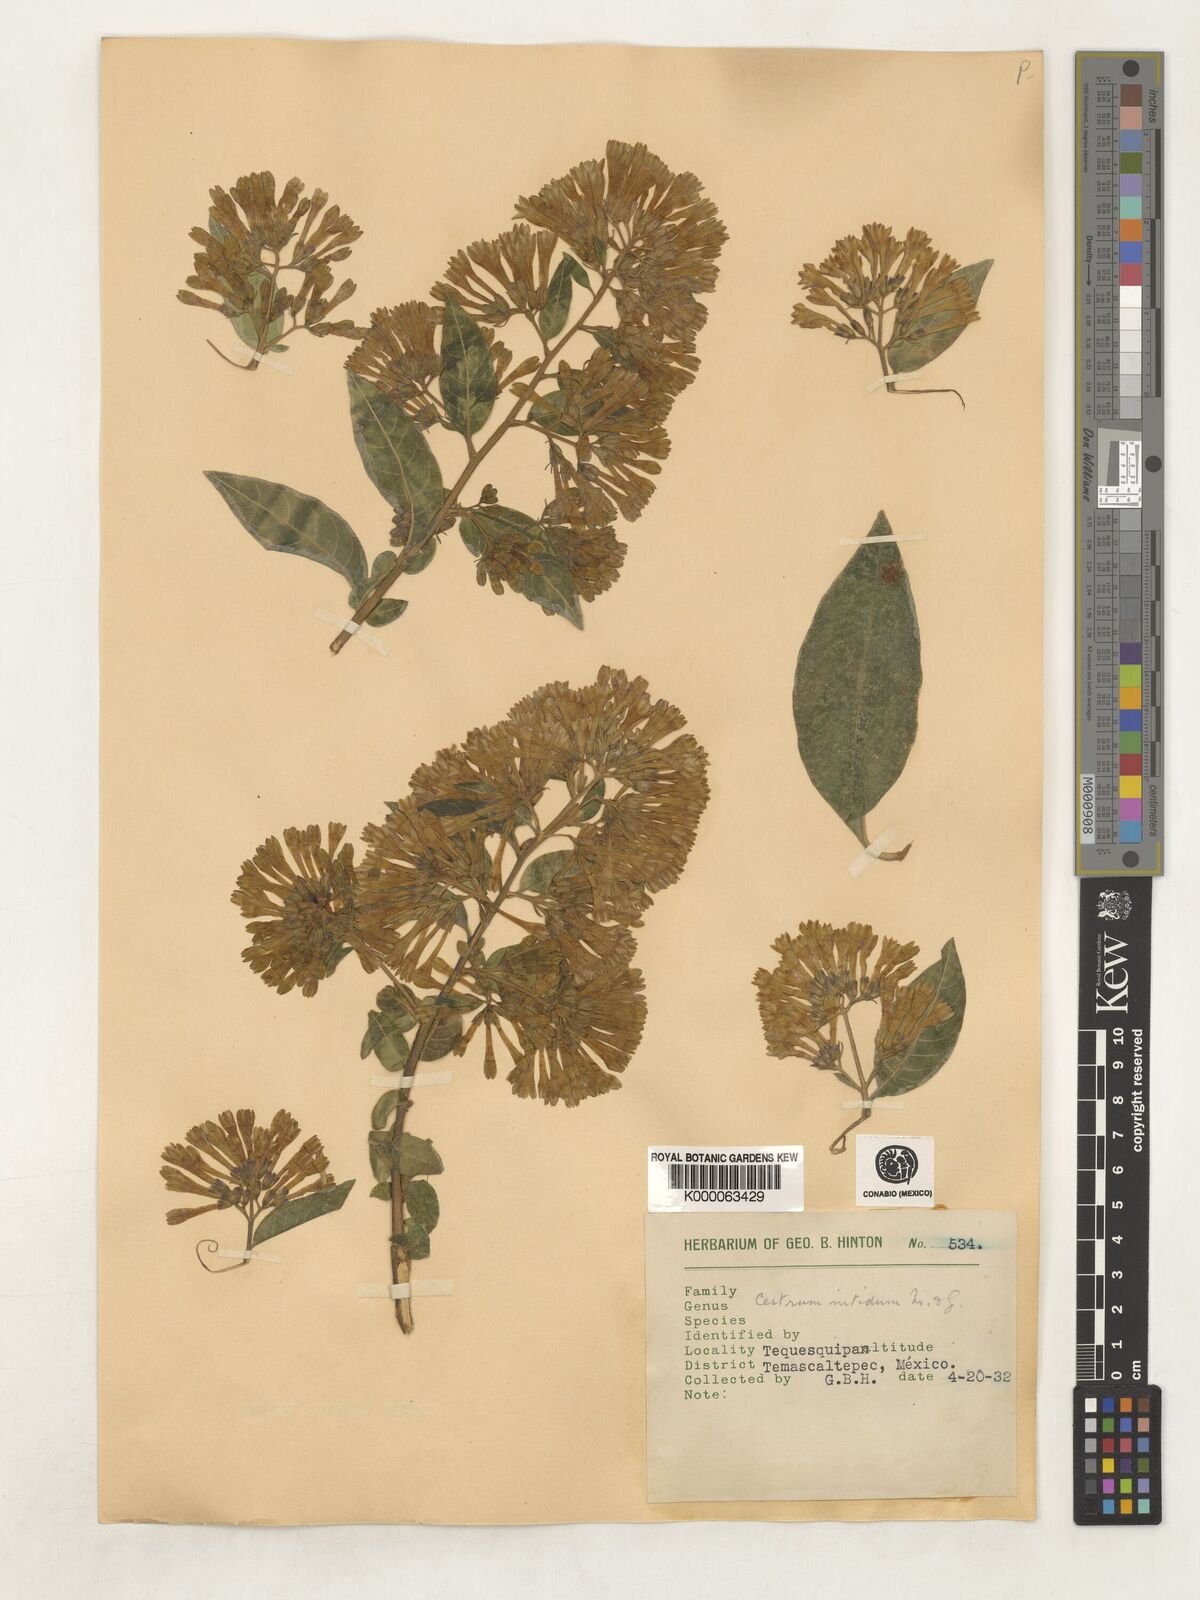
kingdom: Plantae
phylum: Tracheophyta
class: Magnoliopsida
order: Solanales
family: Solanaceae
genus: Cestrum
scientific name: Cestrum nitidum
